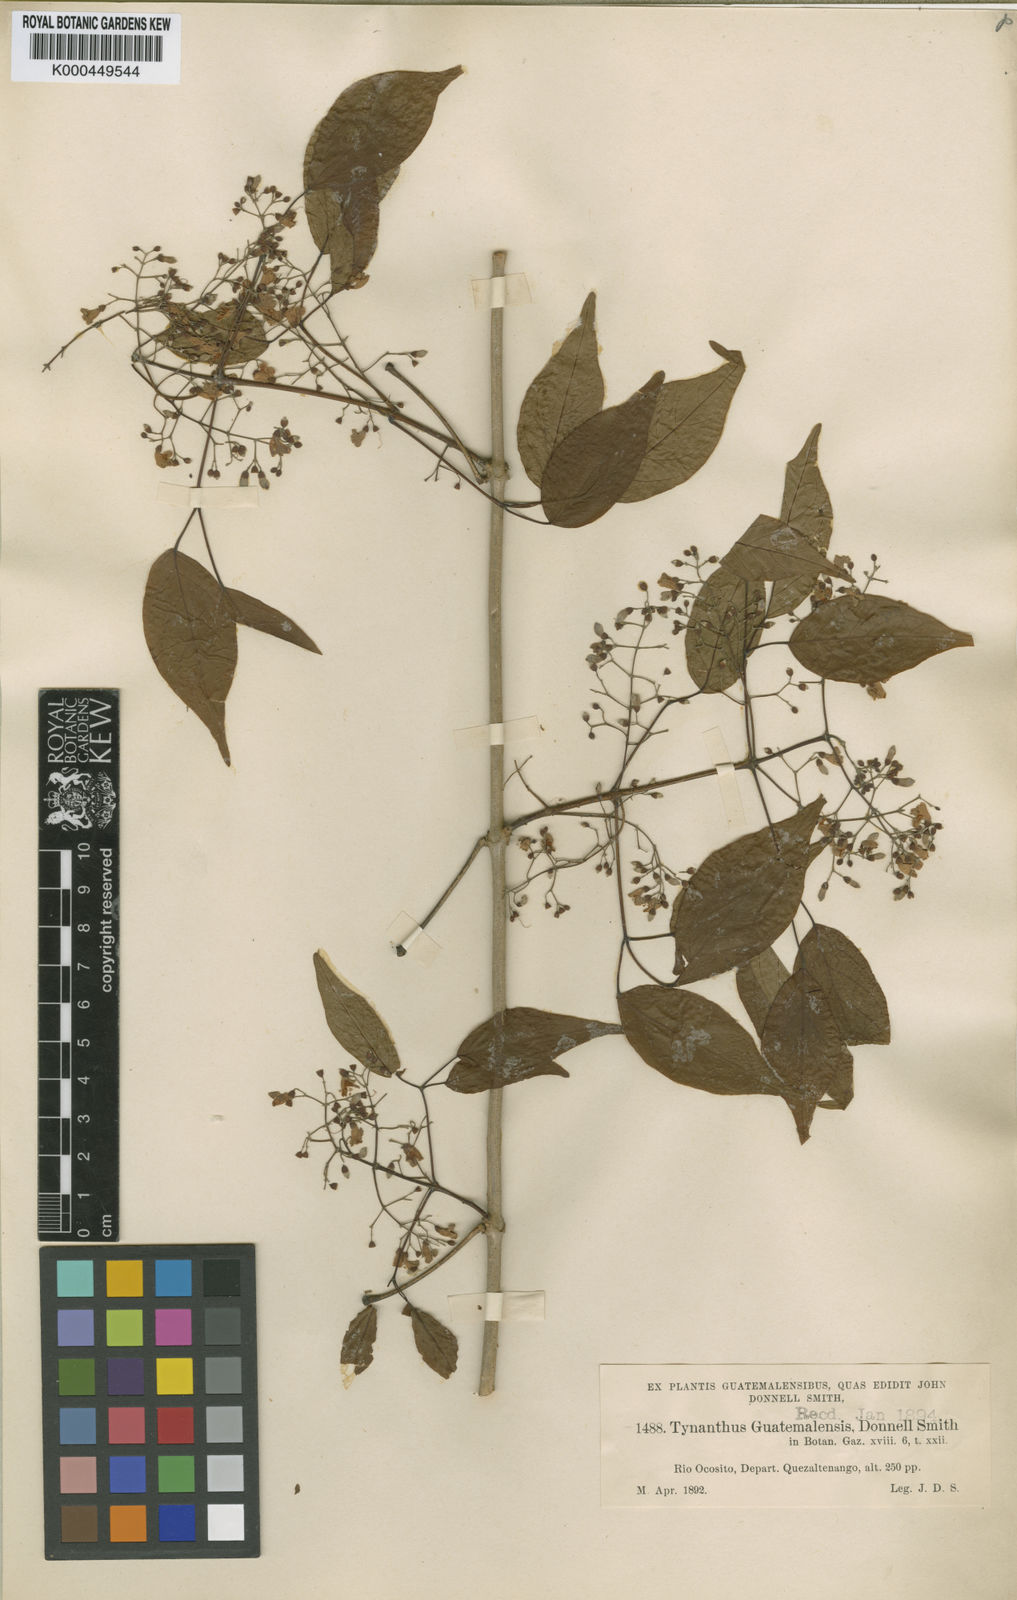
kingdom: Plantae
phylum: Tracheophyta
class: Magnoliopsida
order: Lamiales
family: Bignoniaceae
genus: Tynanthus
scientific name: Tynanthus guatemalensis
